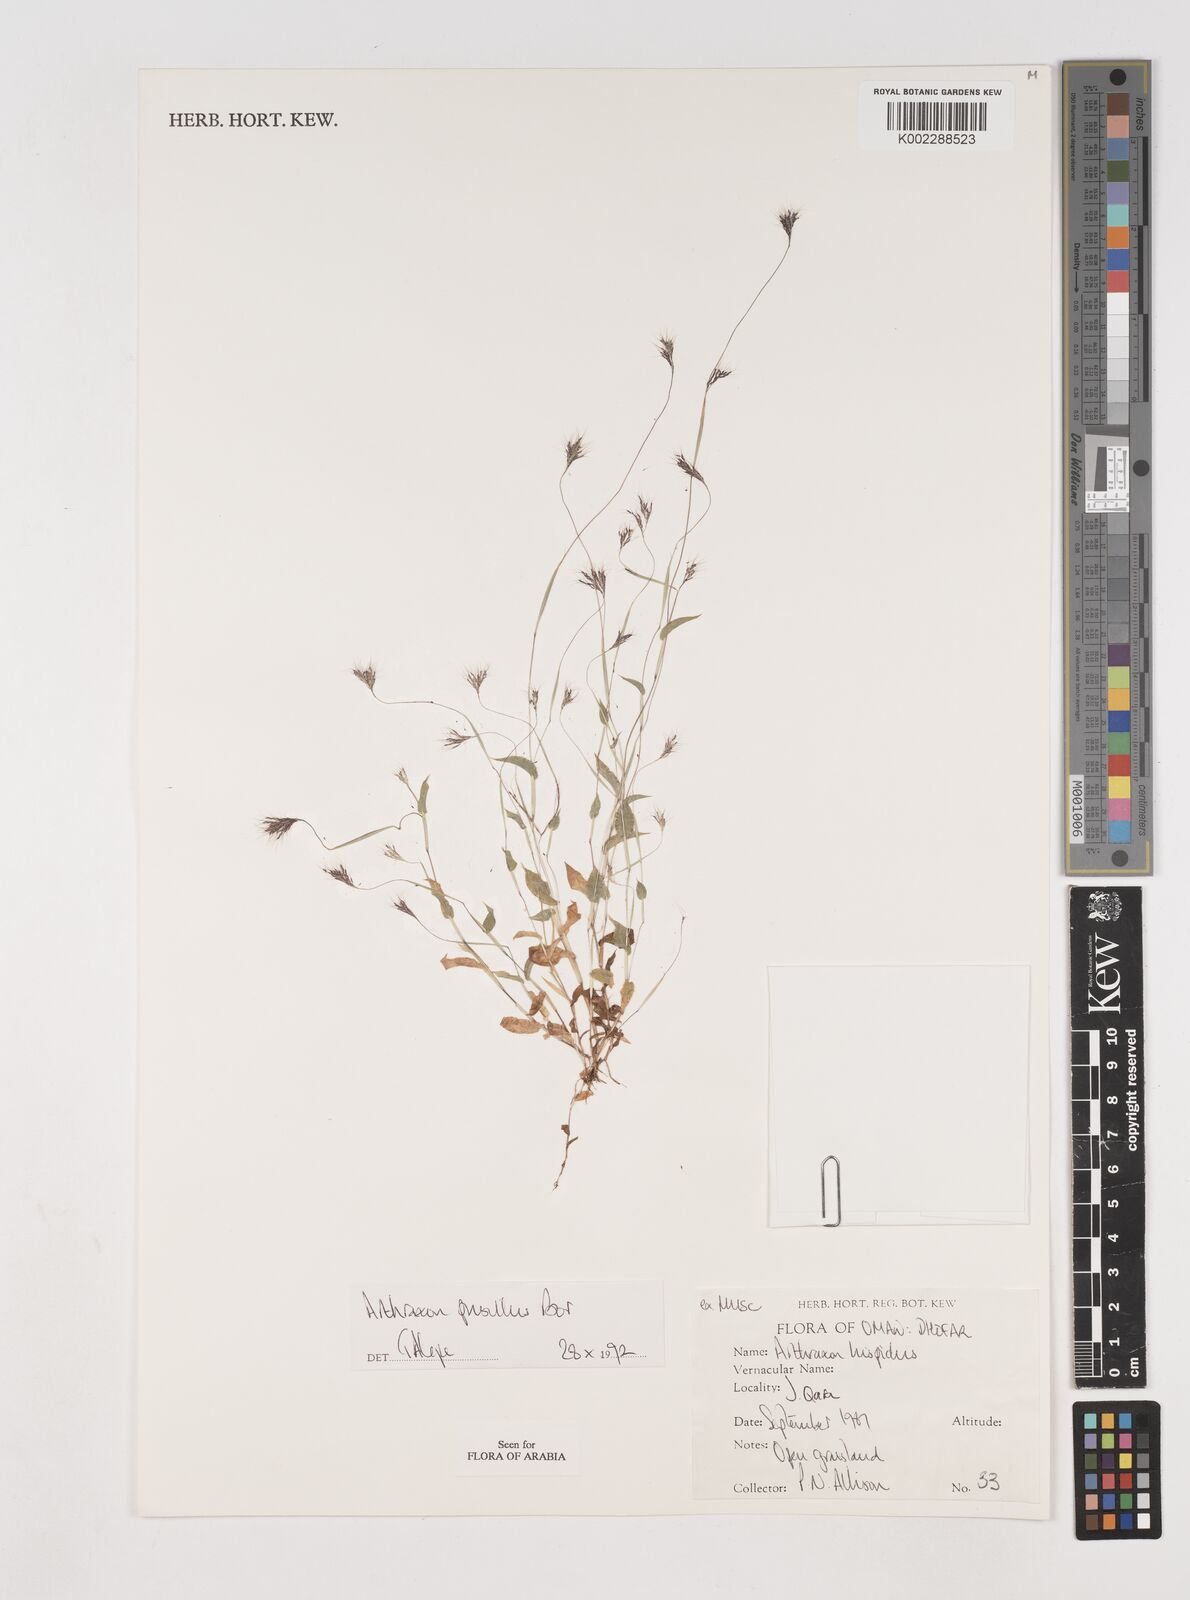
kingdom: Plantae
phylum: Tracheophyta
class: Liliopsida
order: Poales
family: Poaceae
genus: Arthraxon
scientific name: Arthraxon junnarensis
